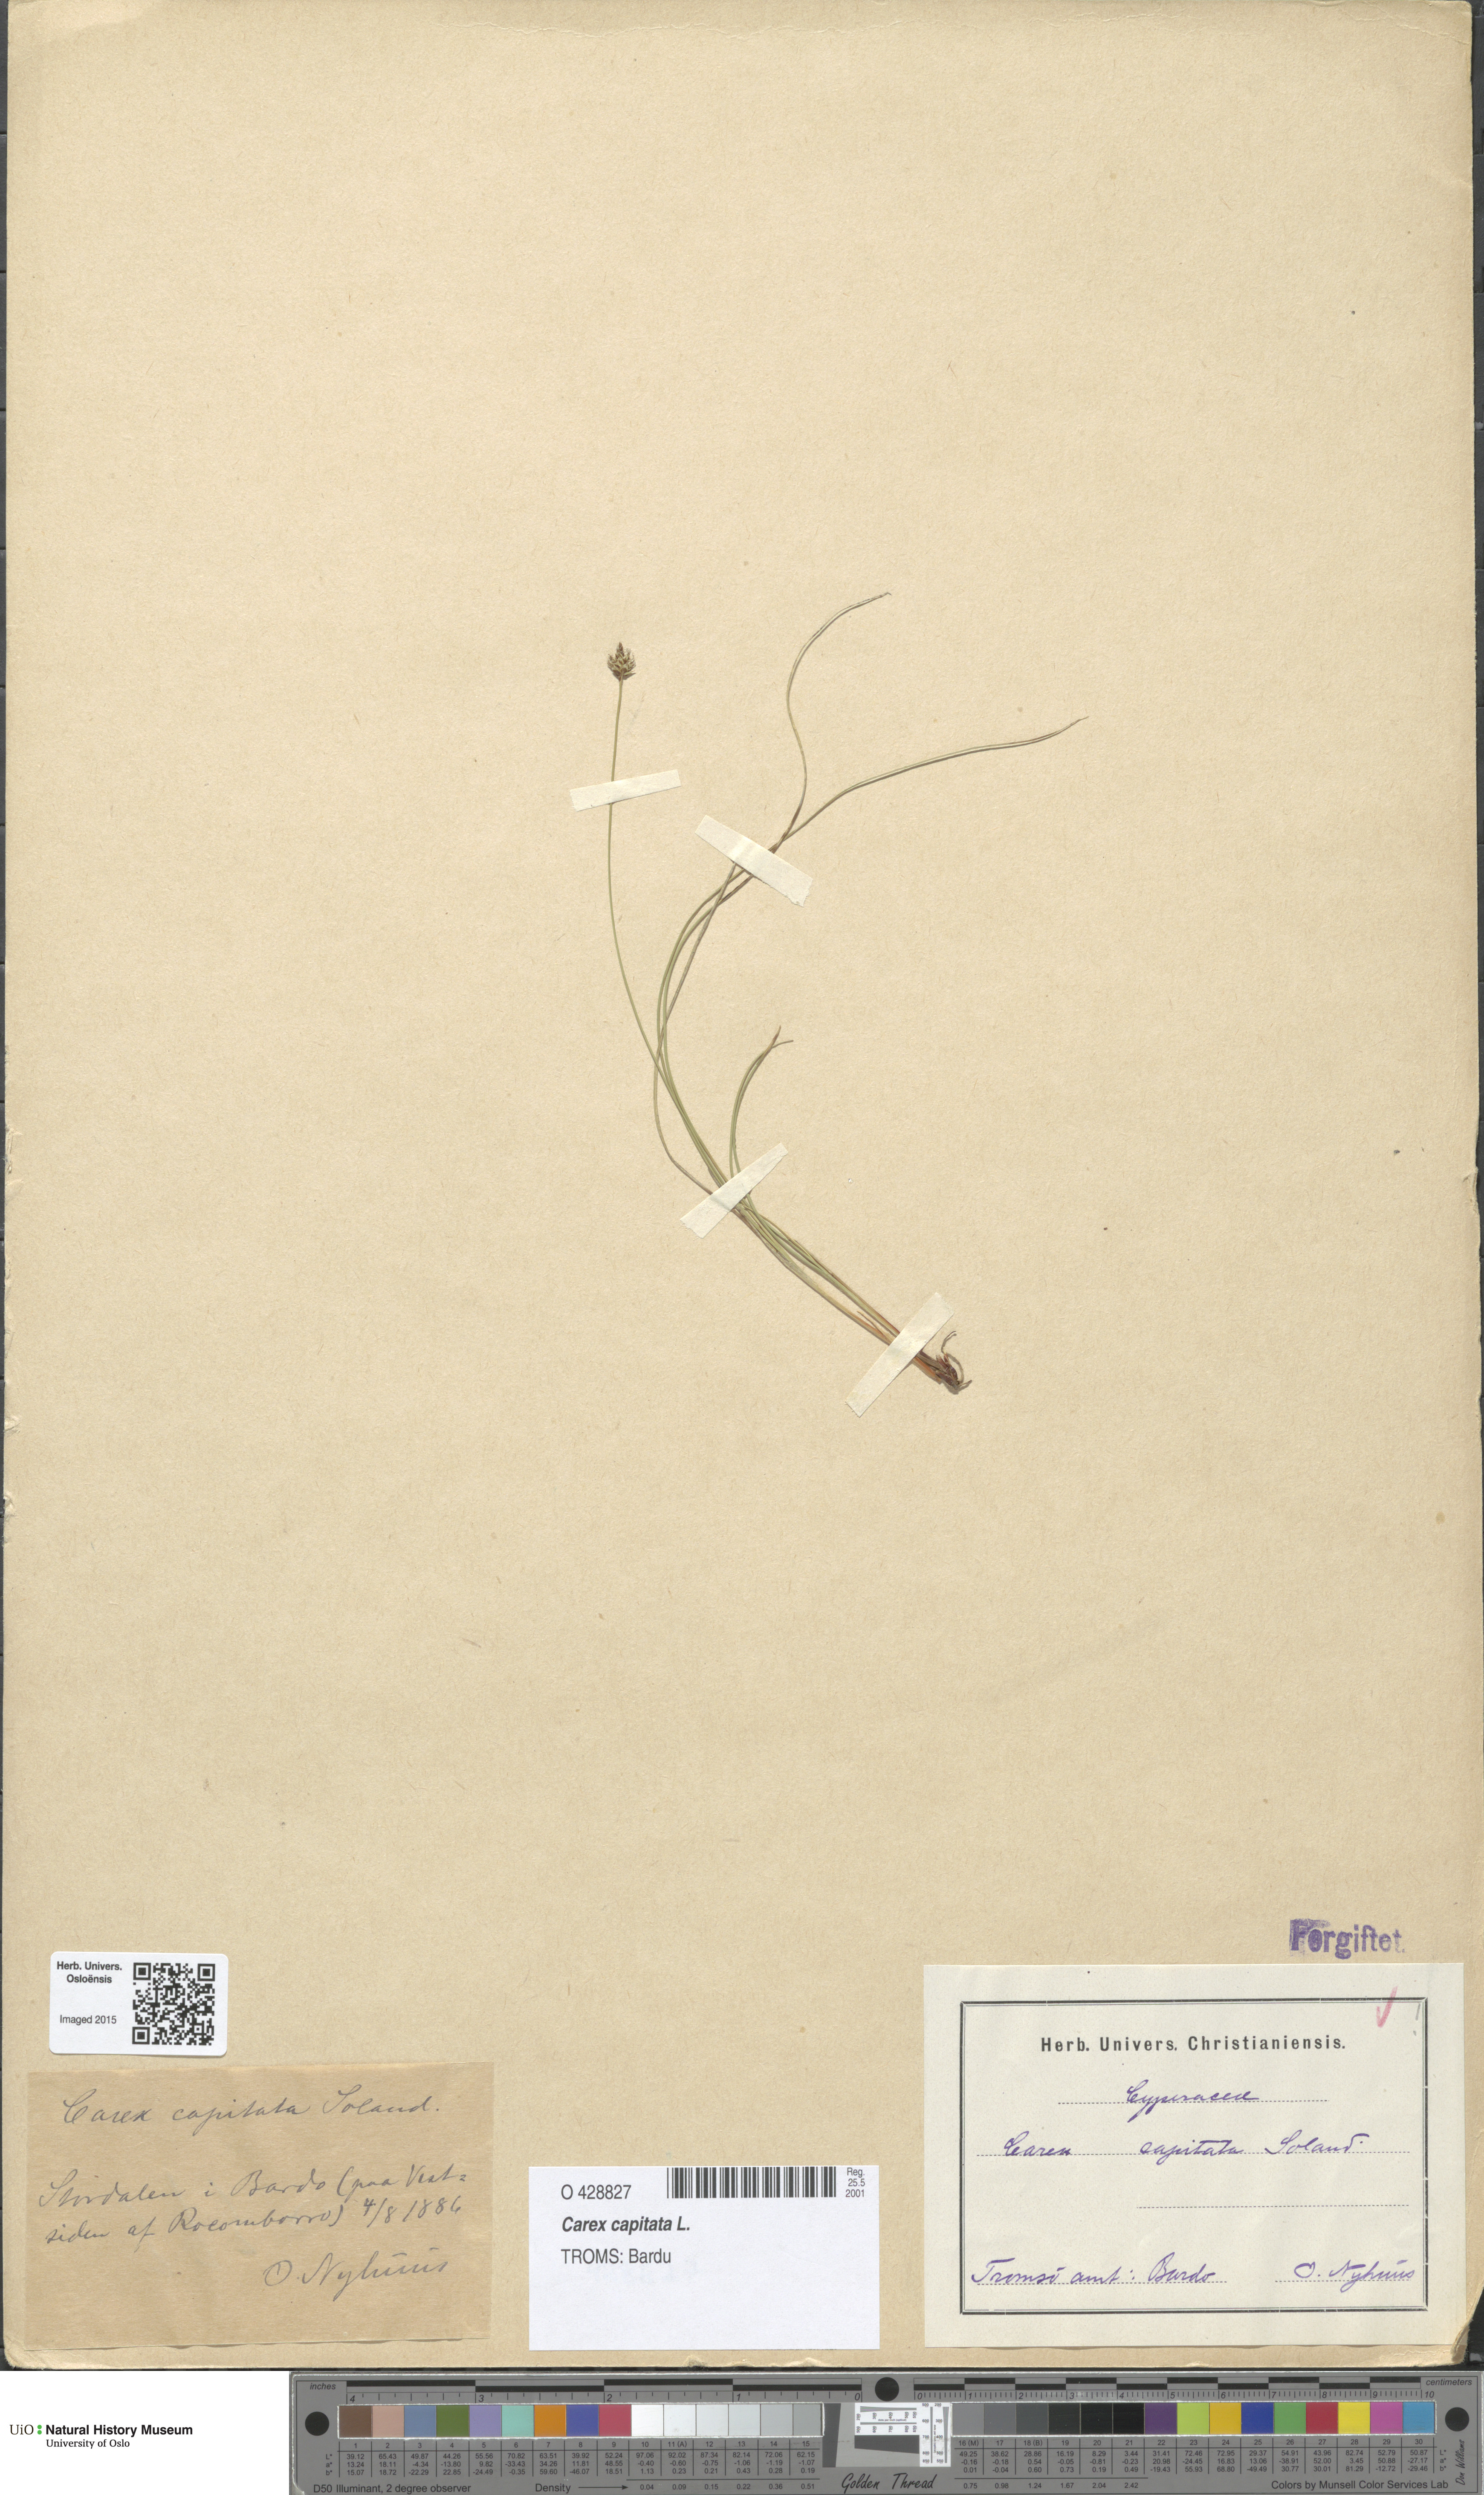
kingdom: Plantae
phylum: Tracheophyta
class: Liliopsida
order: Poales
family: Cyperaceae
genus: Carex
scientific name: Carex capitata
